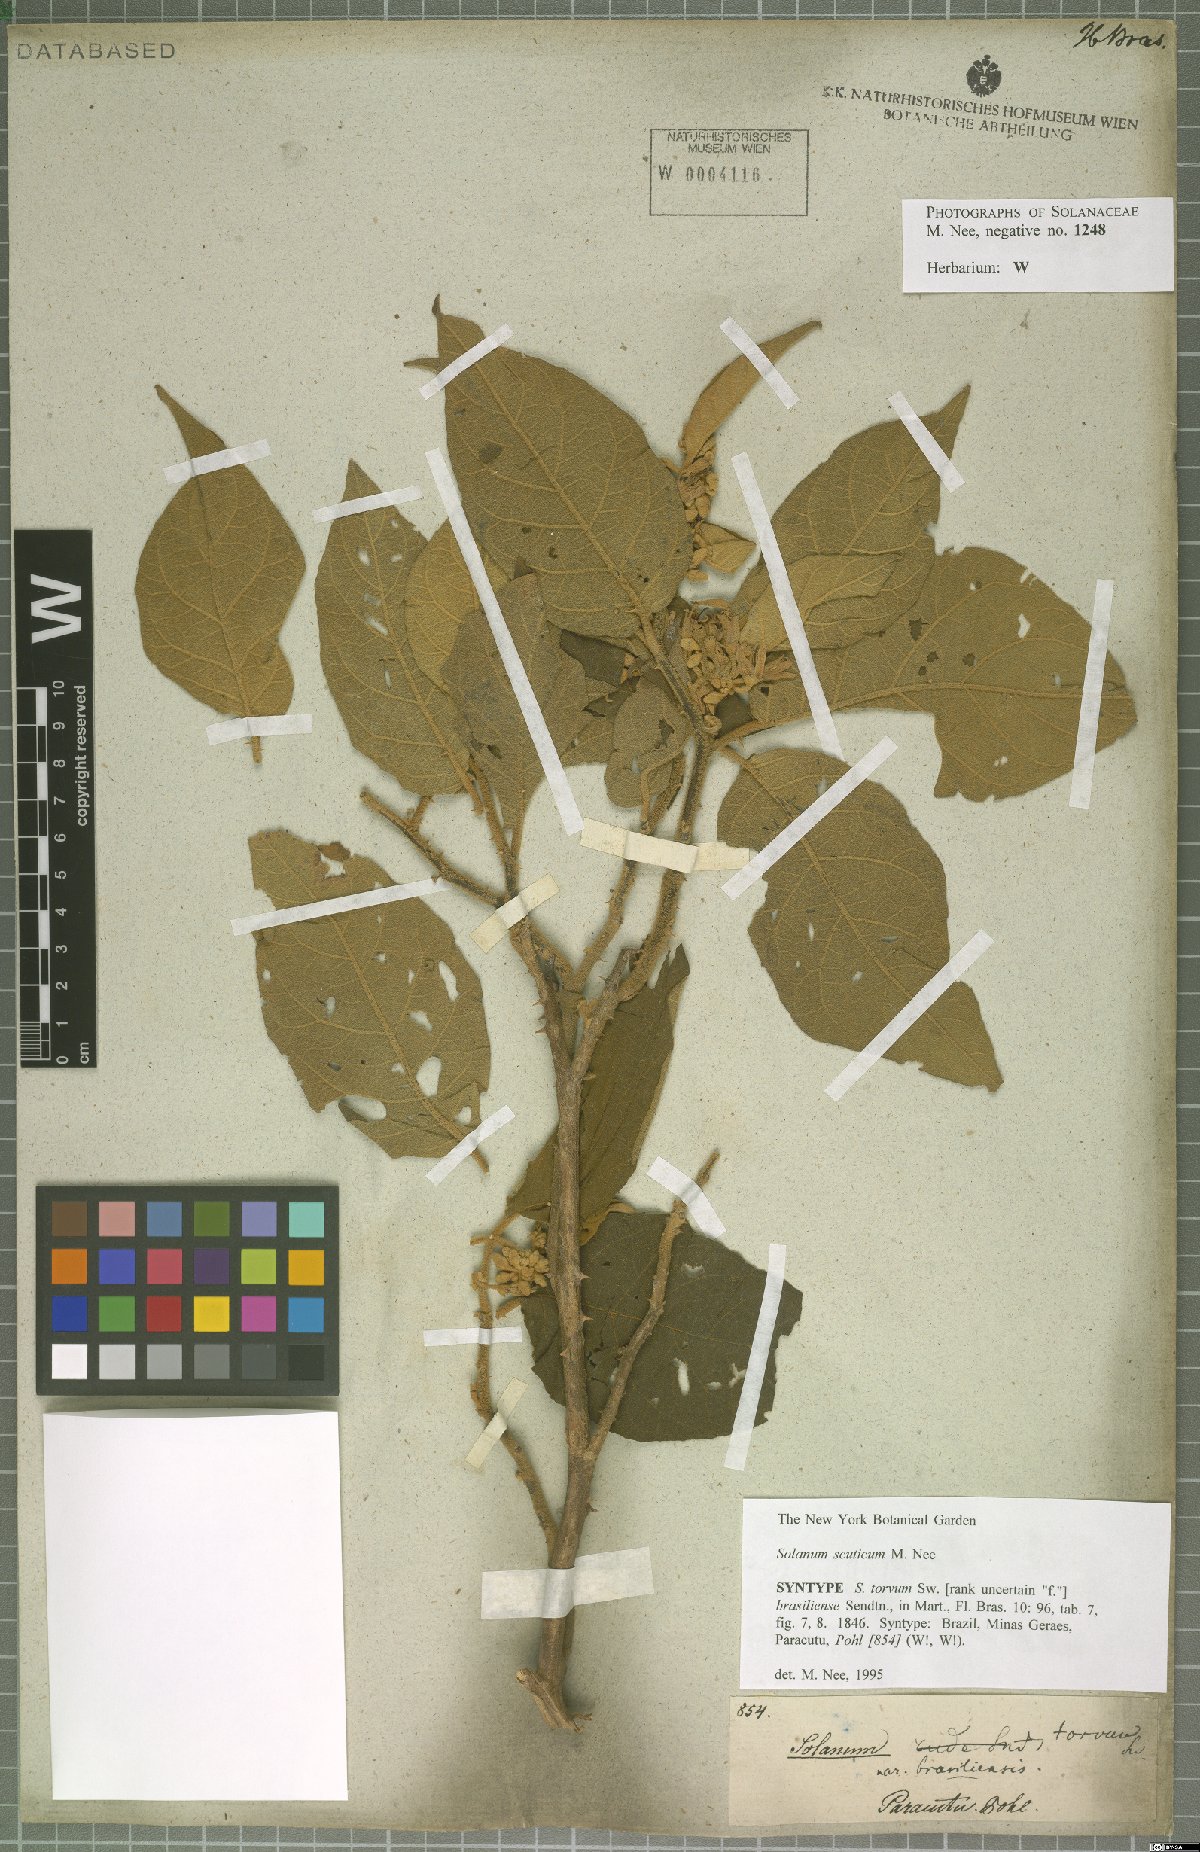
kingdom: Plantae
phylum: Tracheophyta
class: Magnoliopsida
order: Solanales
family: Solanaceae
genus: Solanum
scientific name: Solanum scuticum
